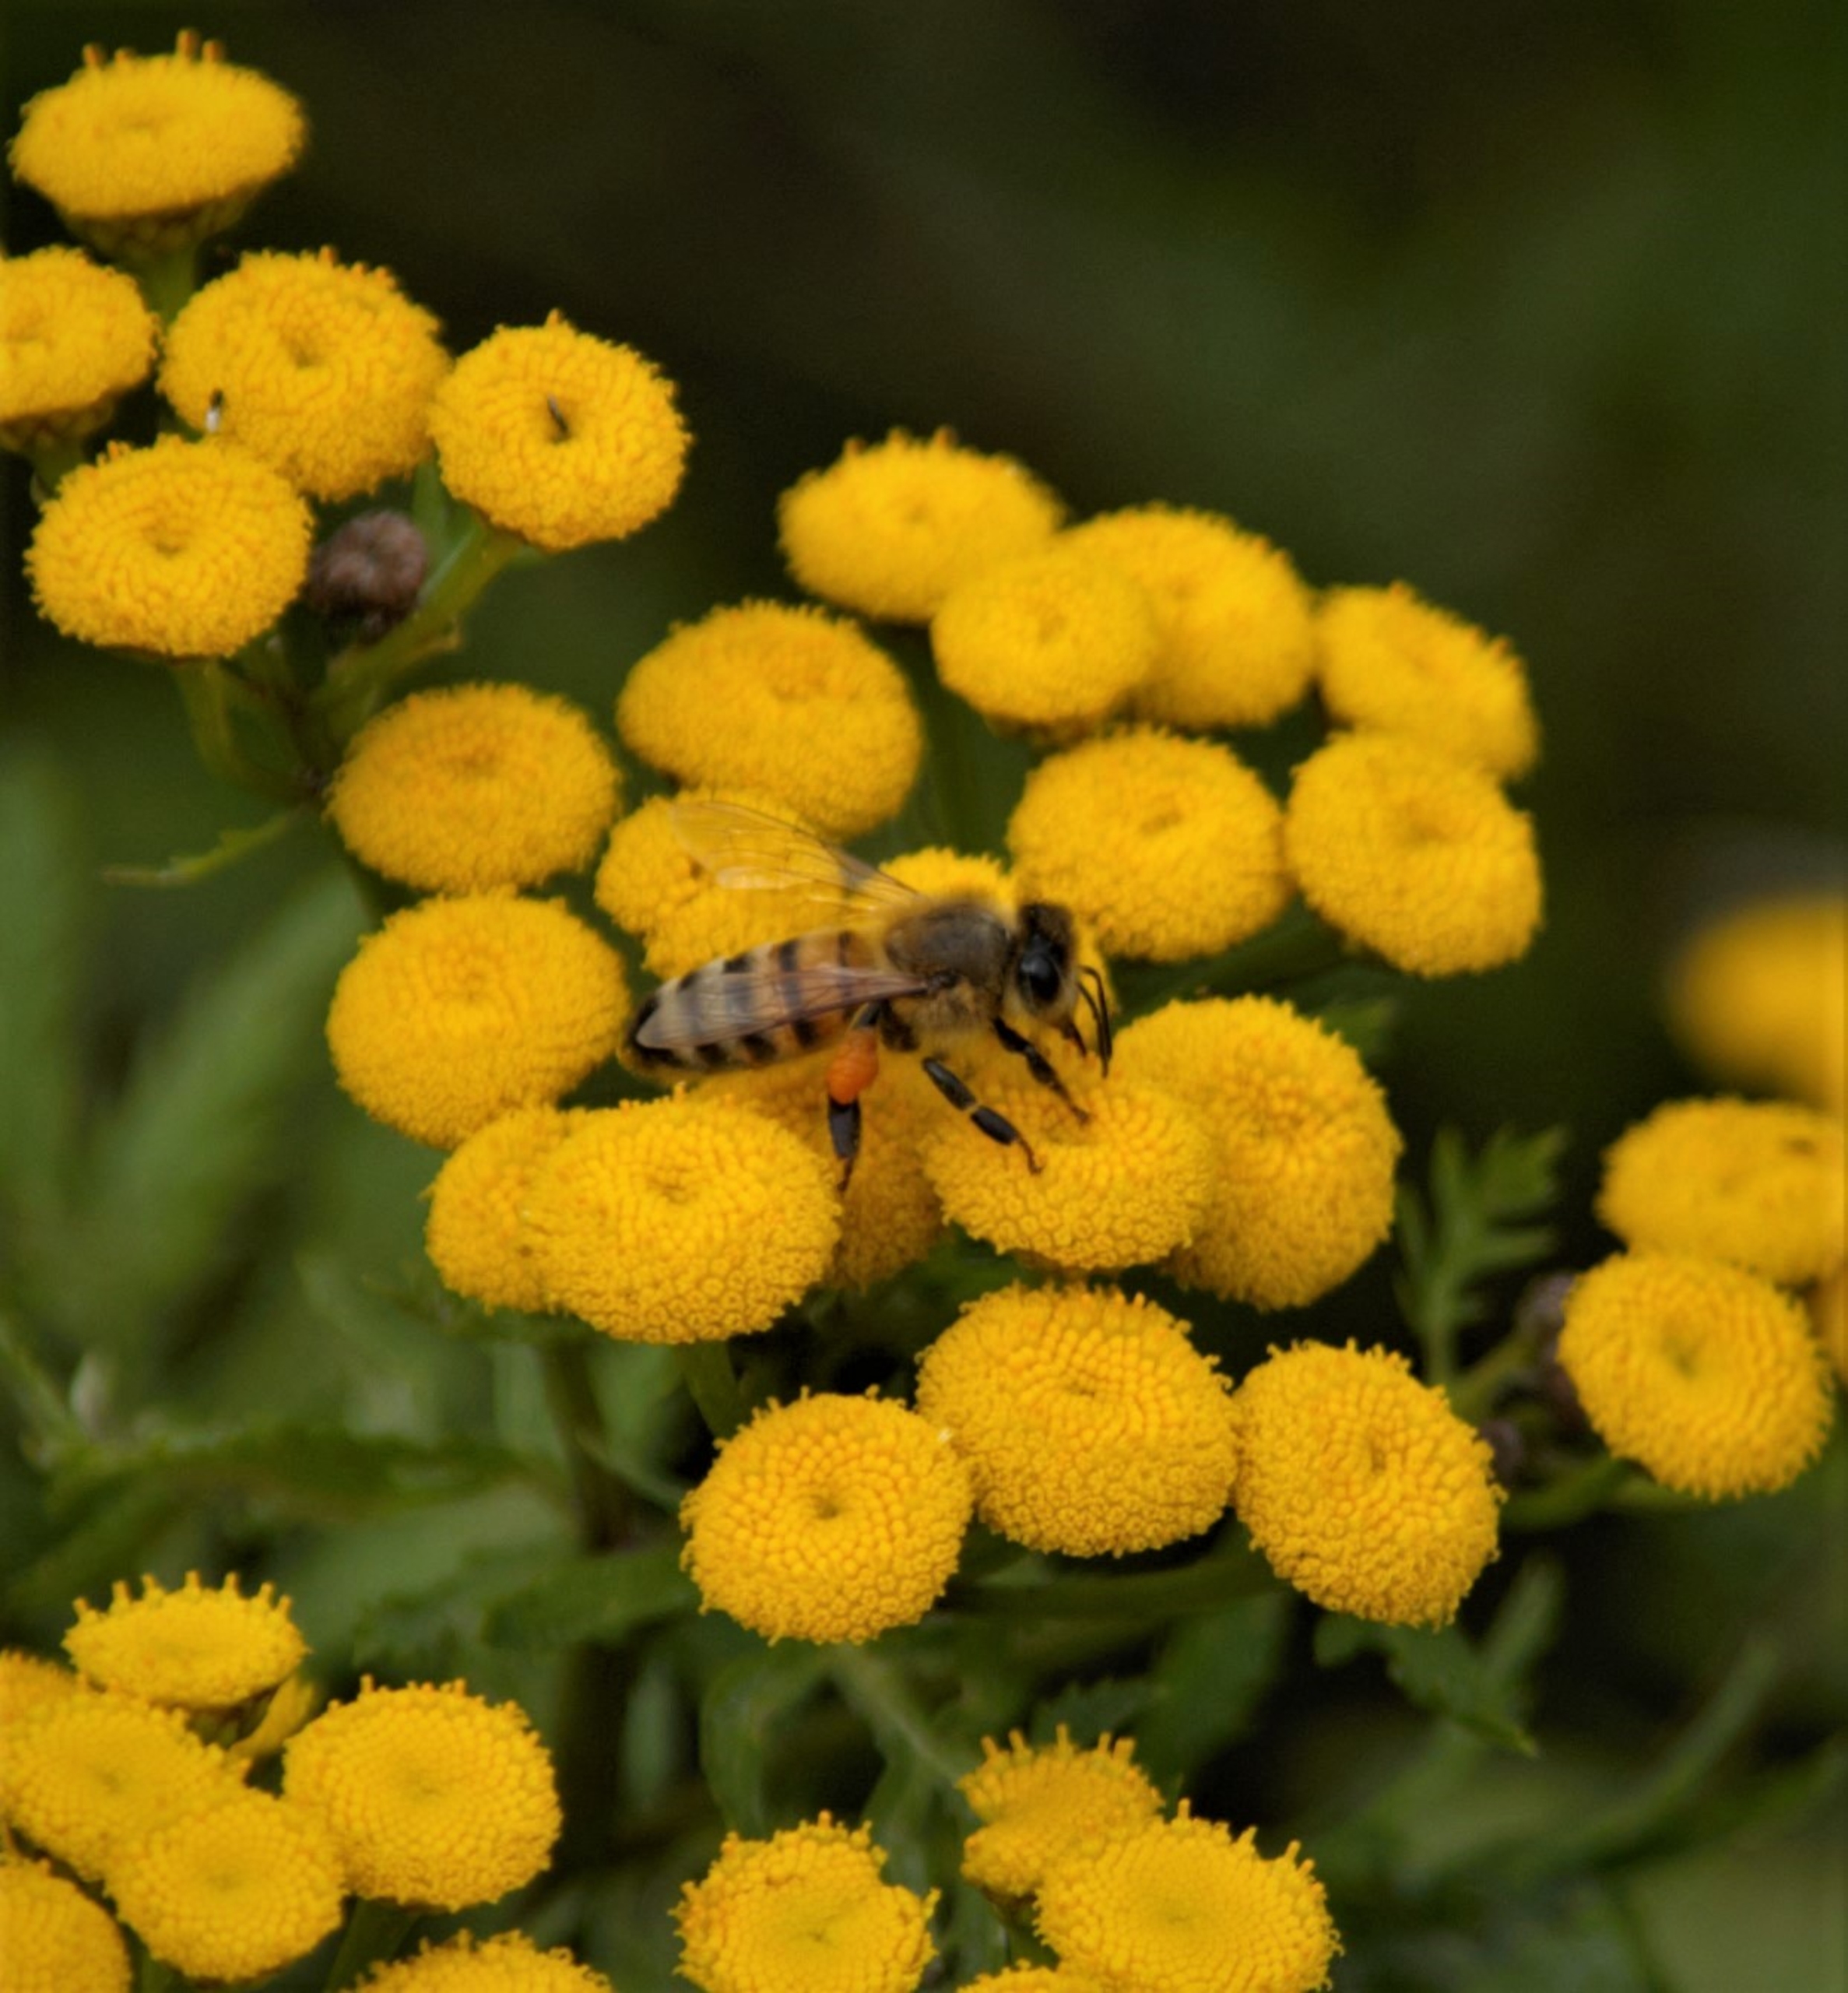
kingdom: Animalia
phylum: Arthropoda
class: Insecta
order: Hymenoptera
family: Apidae
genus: Apis
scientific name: Apis mellifera
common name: Honningbi
